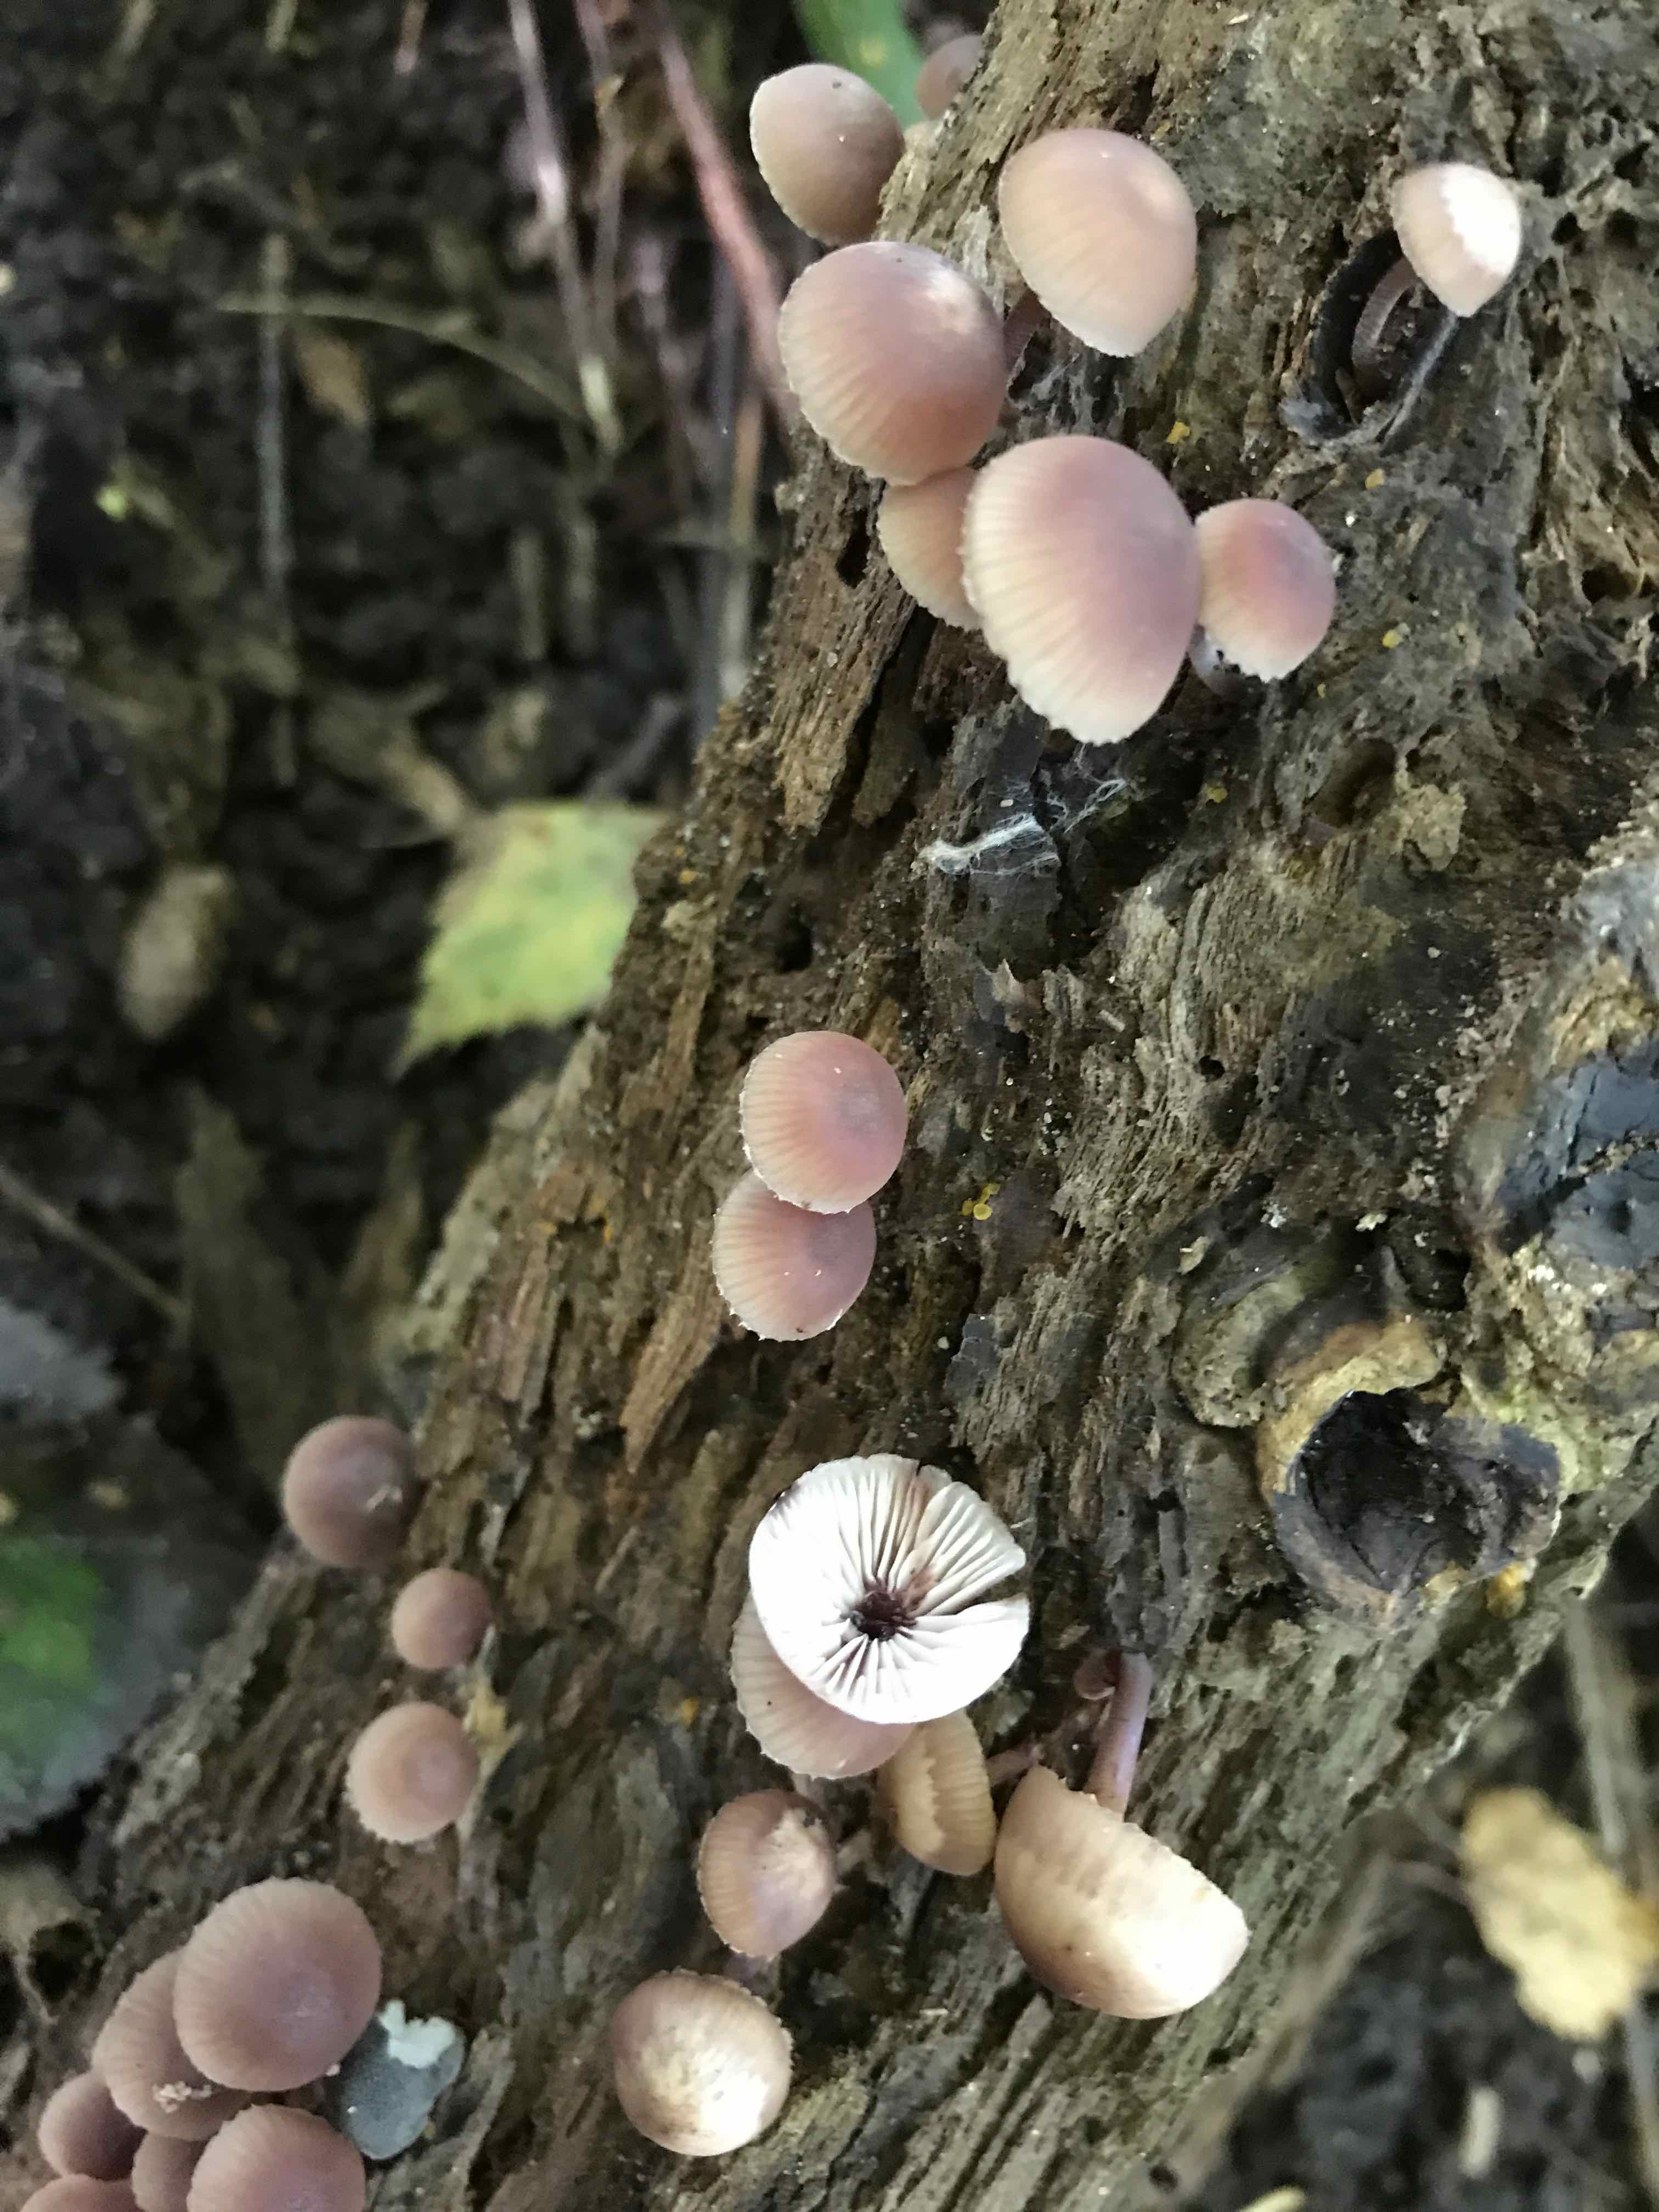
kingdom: Fungi
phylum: Basidiomycota
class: Agaricomycetes
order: Agaricales
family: Mycenaceae
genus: Mycena
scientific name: Mycena haematopus
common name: blødende huesvamp
